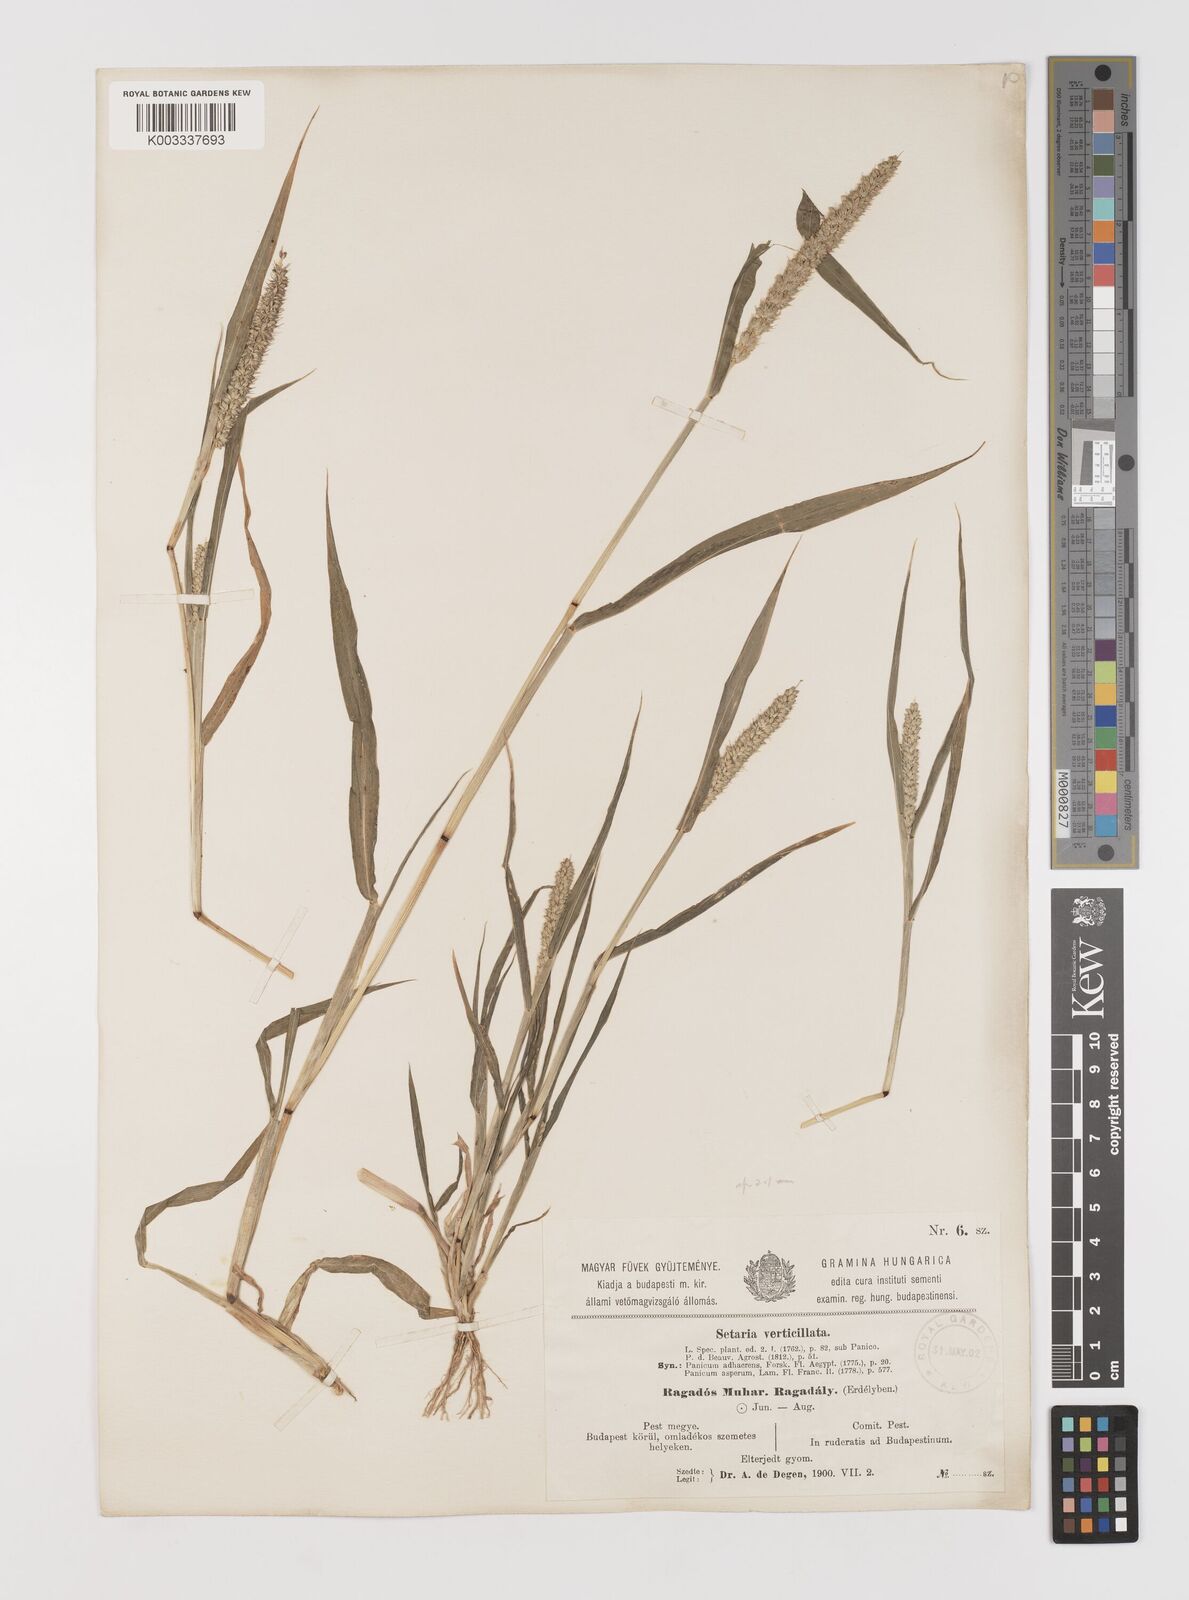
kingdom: Plantae
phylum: Tracheophyta
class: Liliopsida
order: Poales
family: Poaceae
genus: Setaria
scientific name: Setaria verticillata
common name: Hooked bristlegrass
